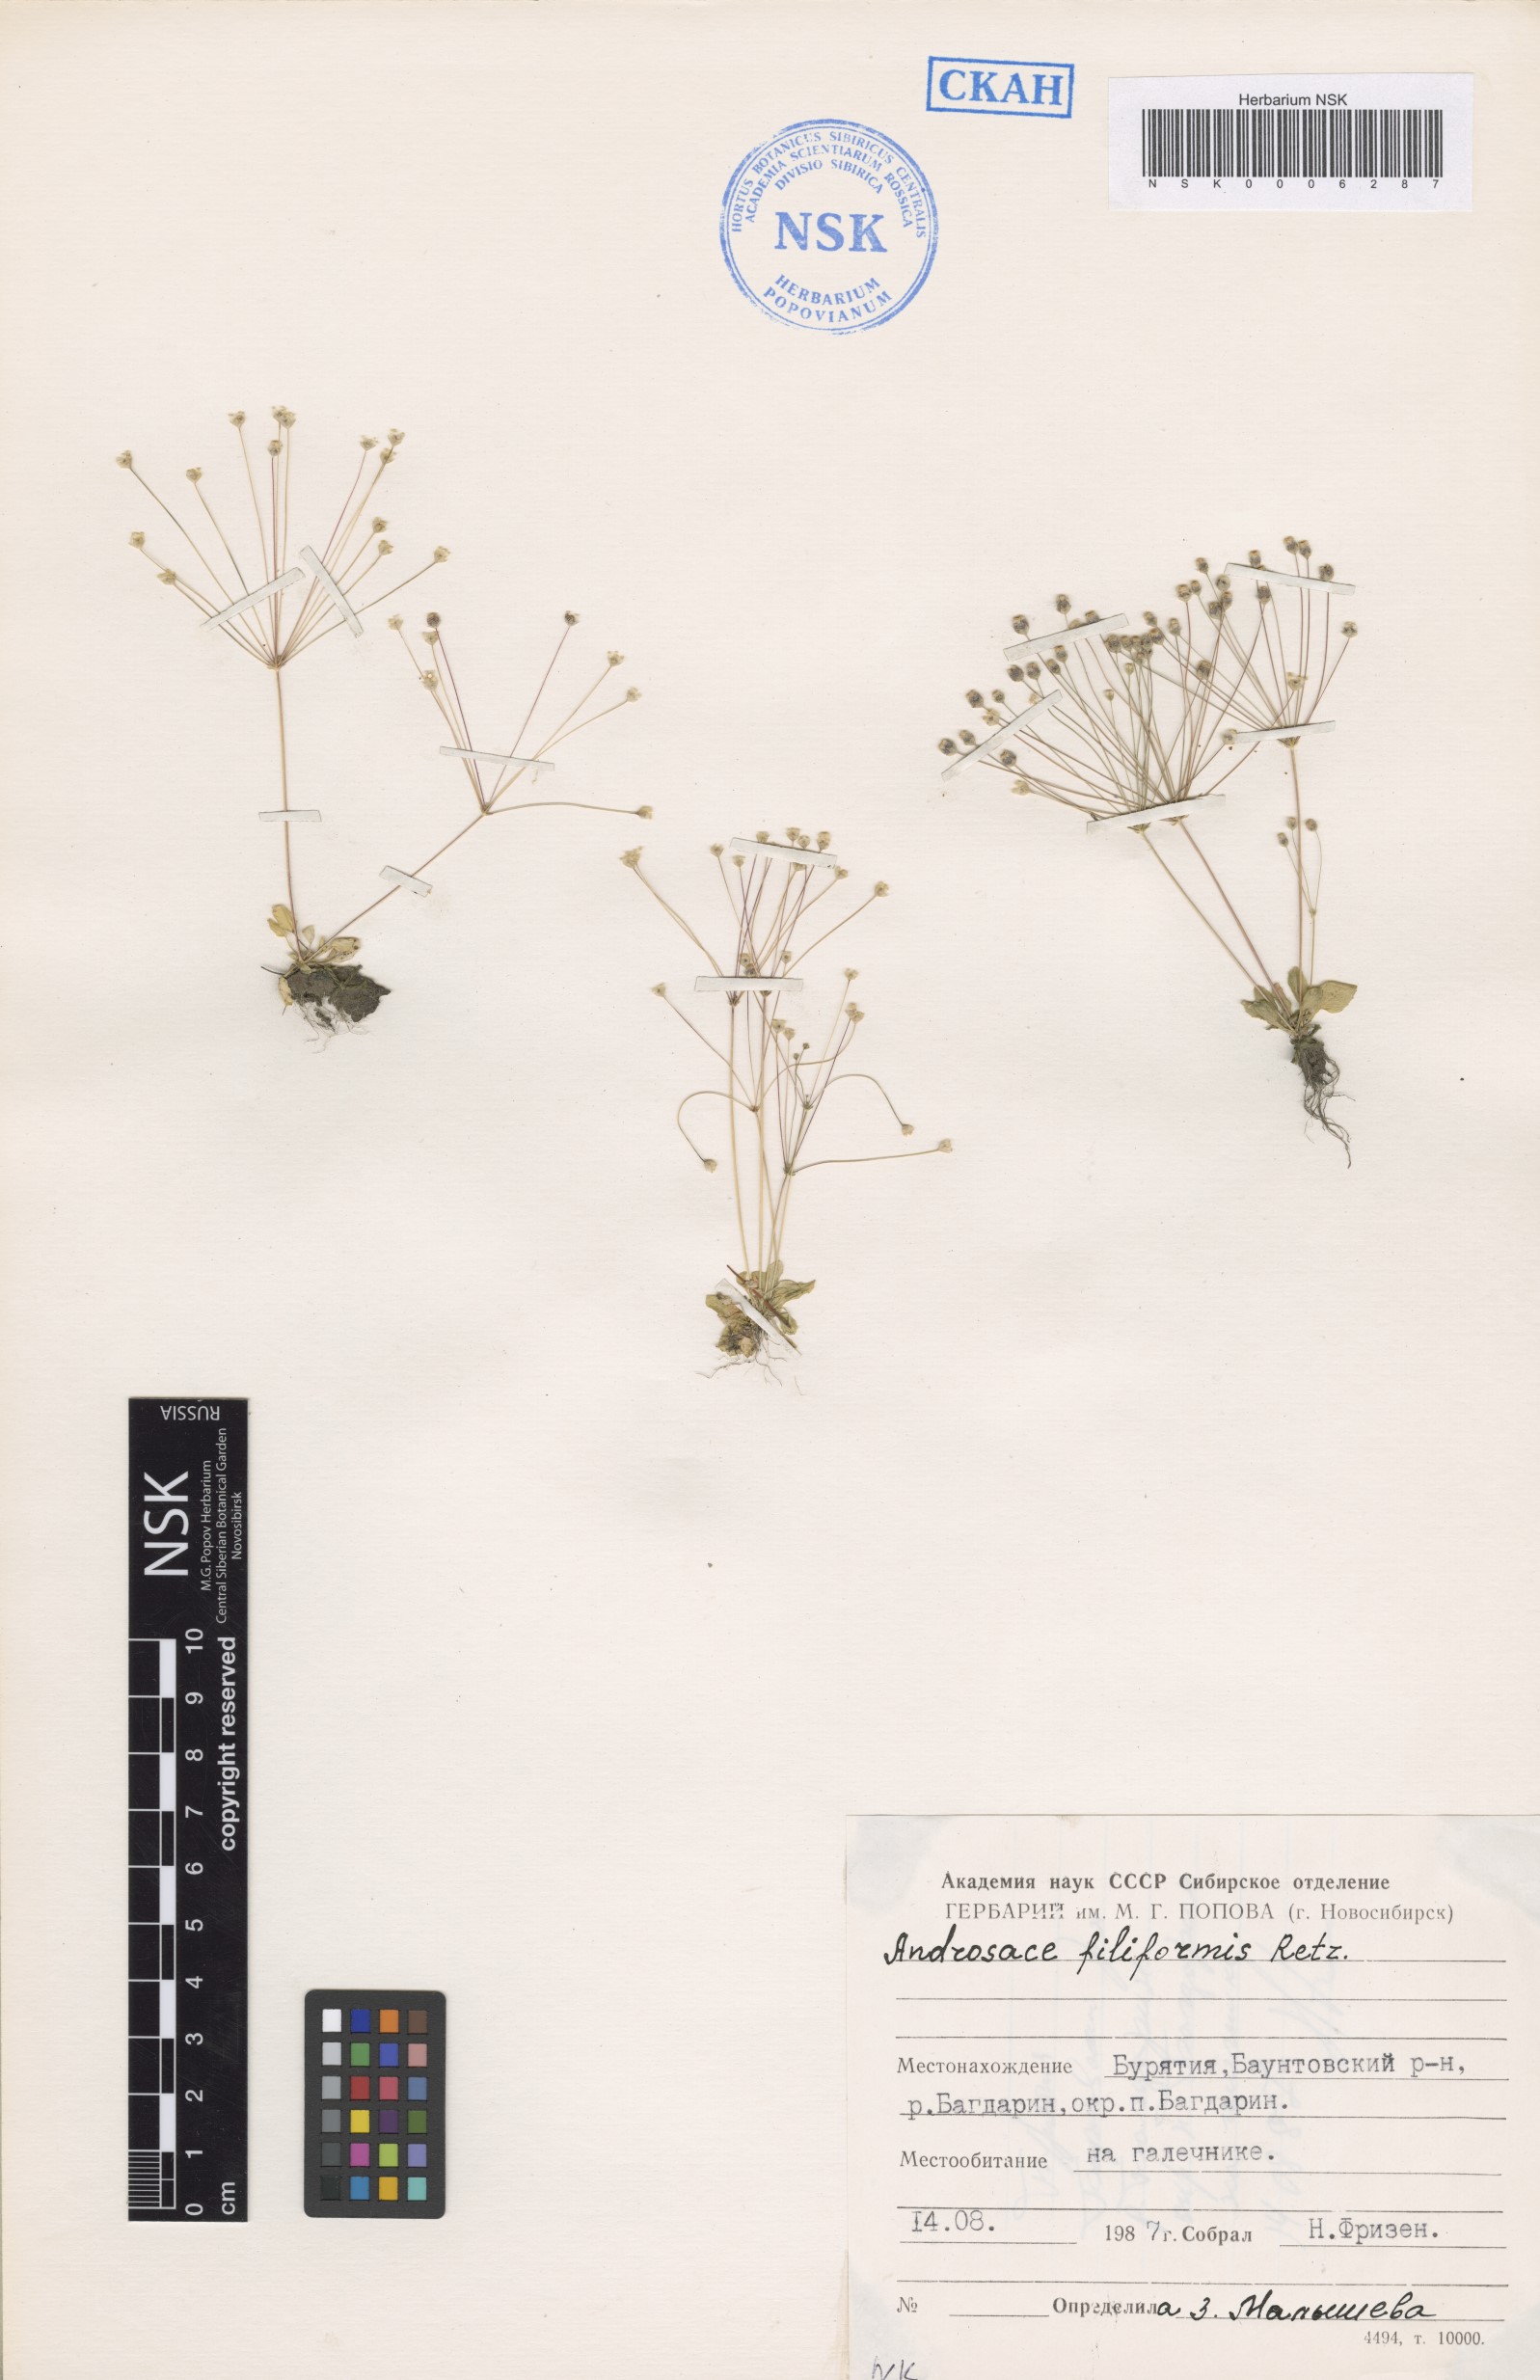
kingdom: Plantae
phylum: Tracheophyta
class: Magnoliopsida
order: Ericales
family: Primulaceae
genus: Androsace
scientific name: Androsace filiformis
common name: Filiform rock jasmine
